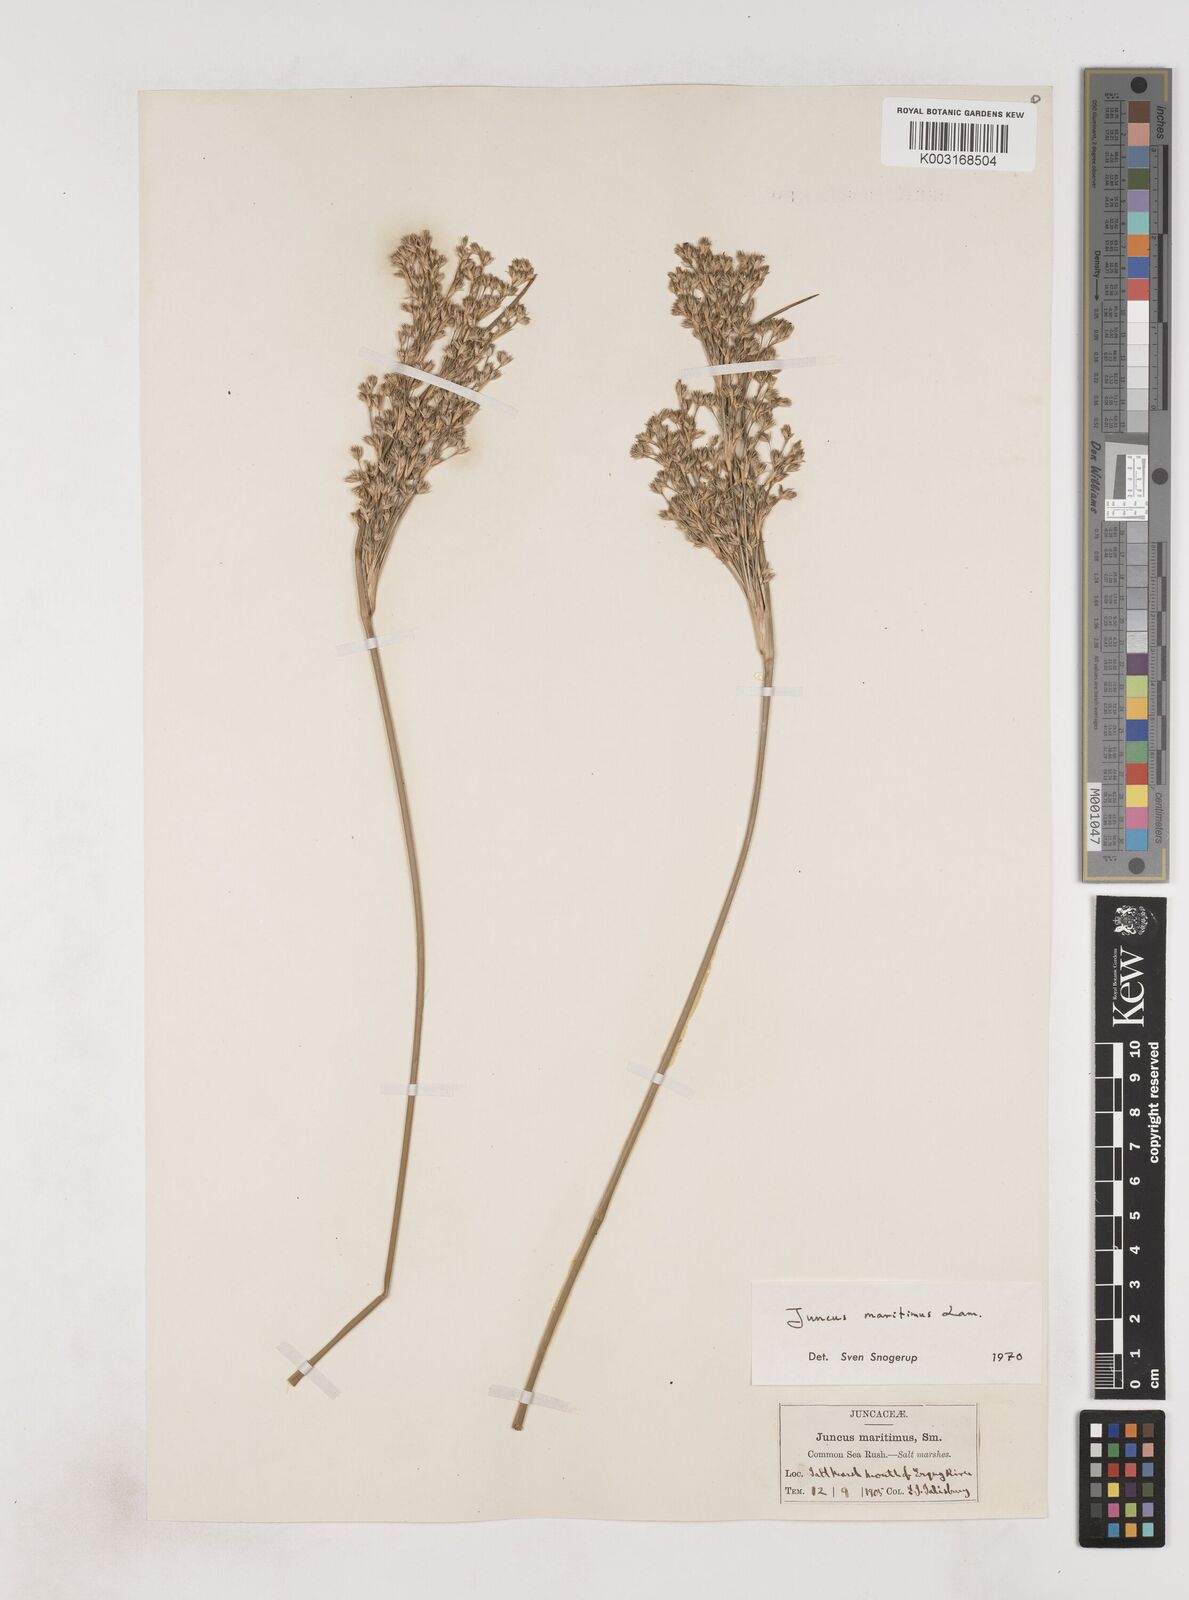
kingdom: Plantae
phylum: Tracheophyta
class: Liliopsida
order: Poales
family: Juncaceae
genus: Juncus
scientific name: Juncus maritimus
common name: Sea rush
